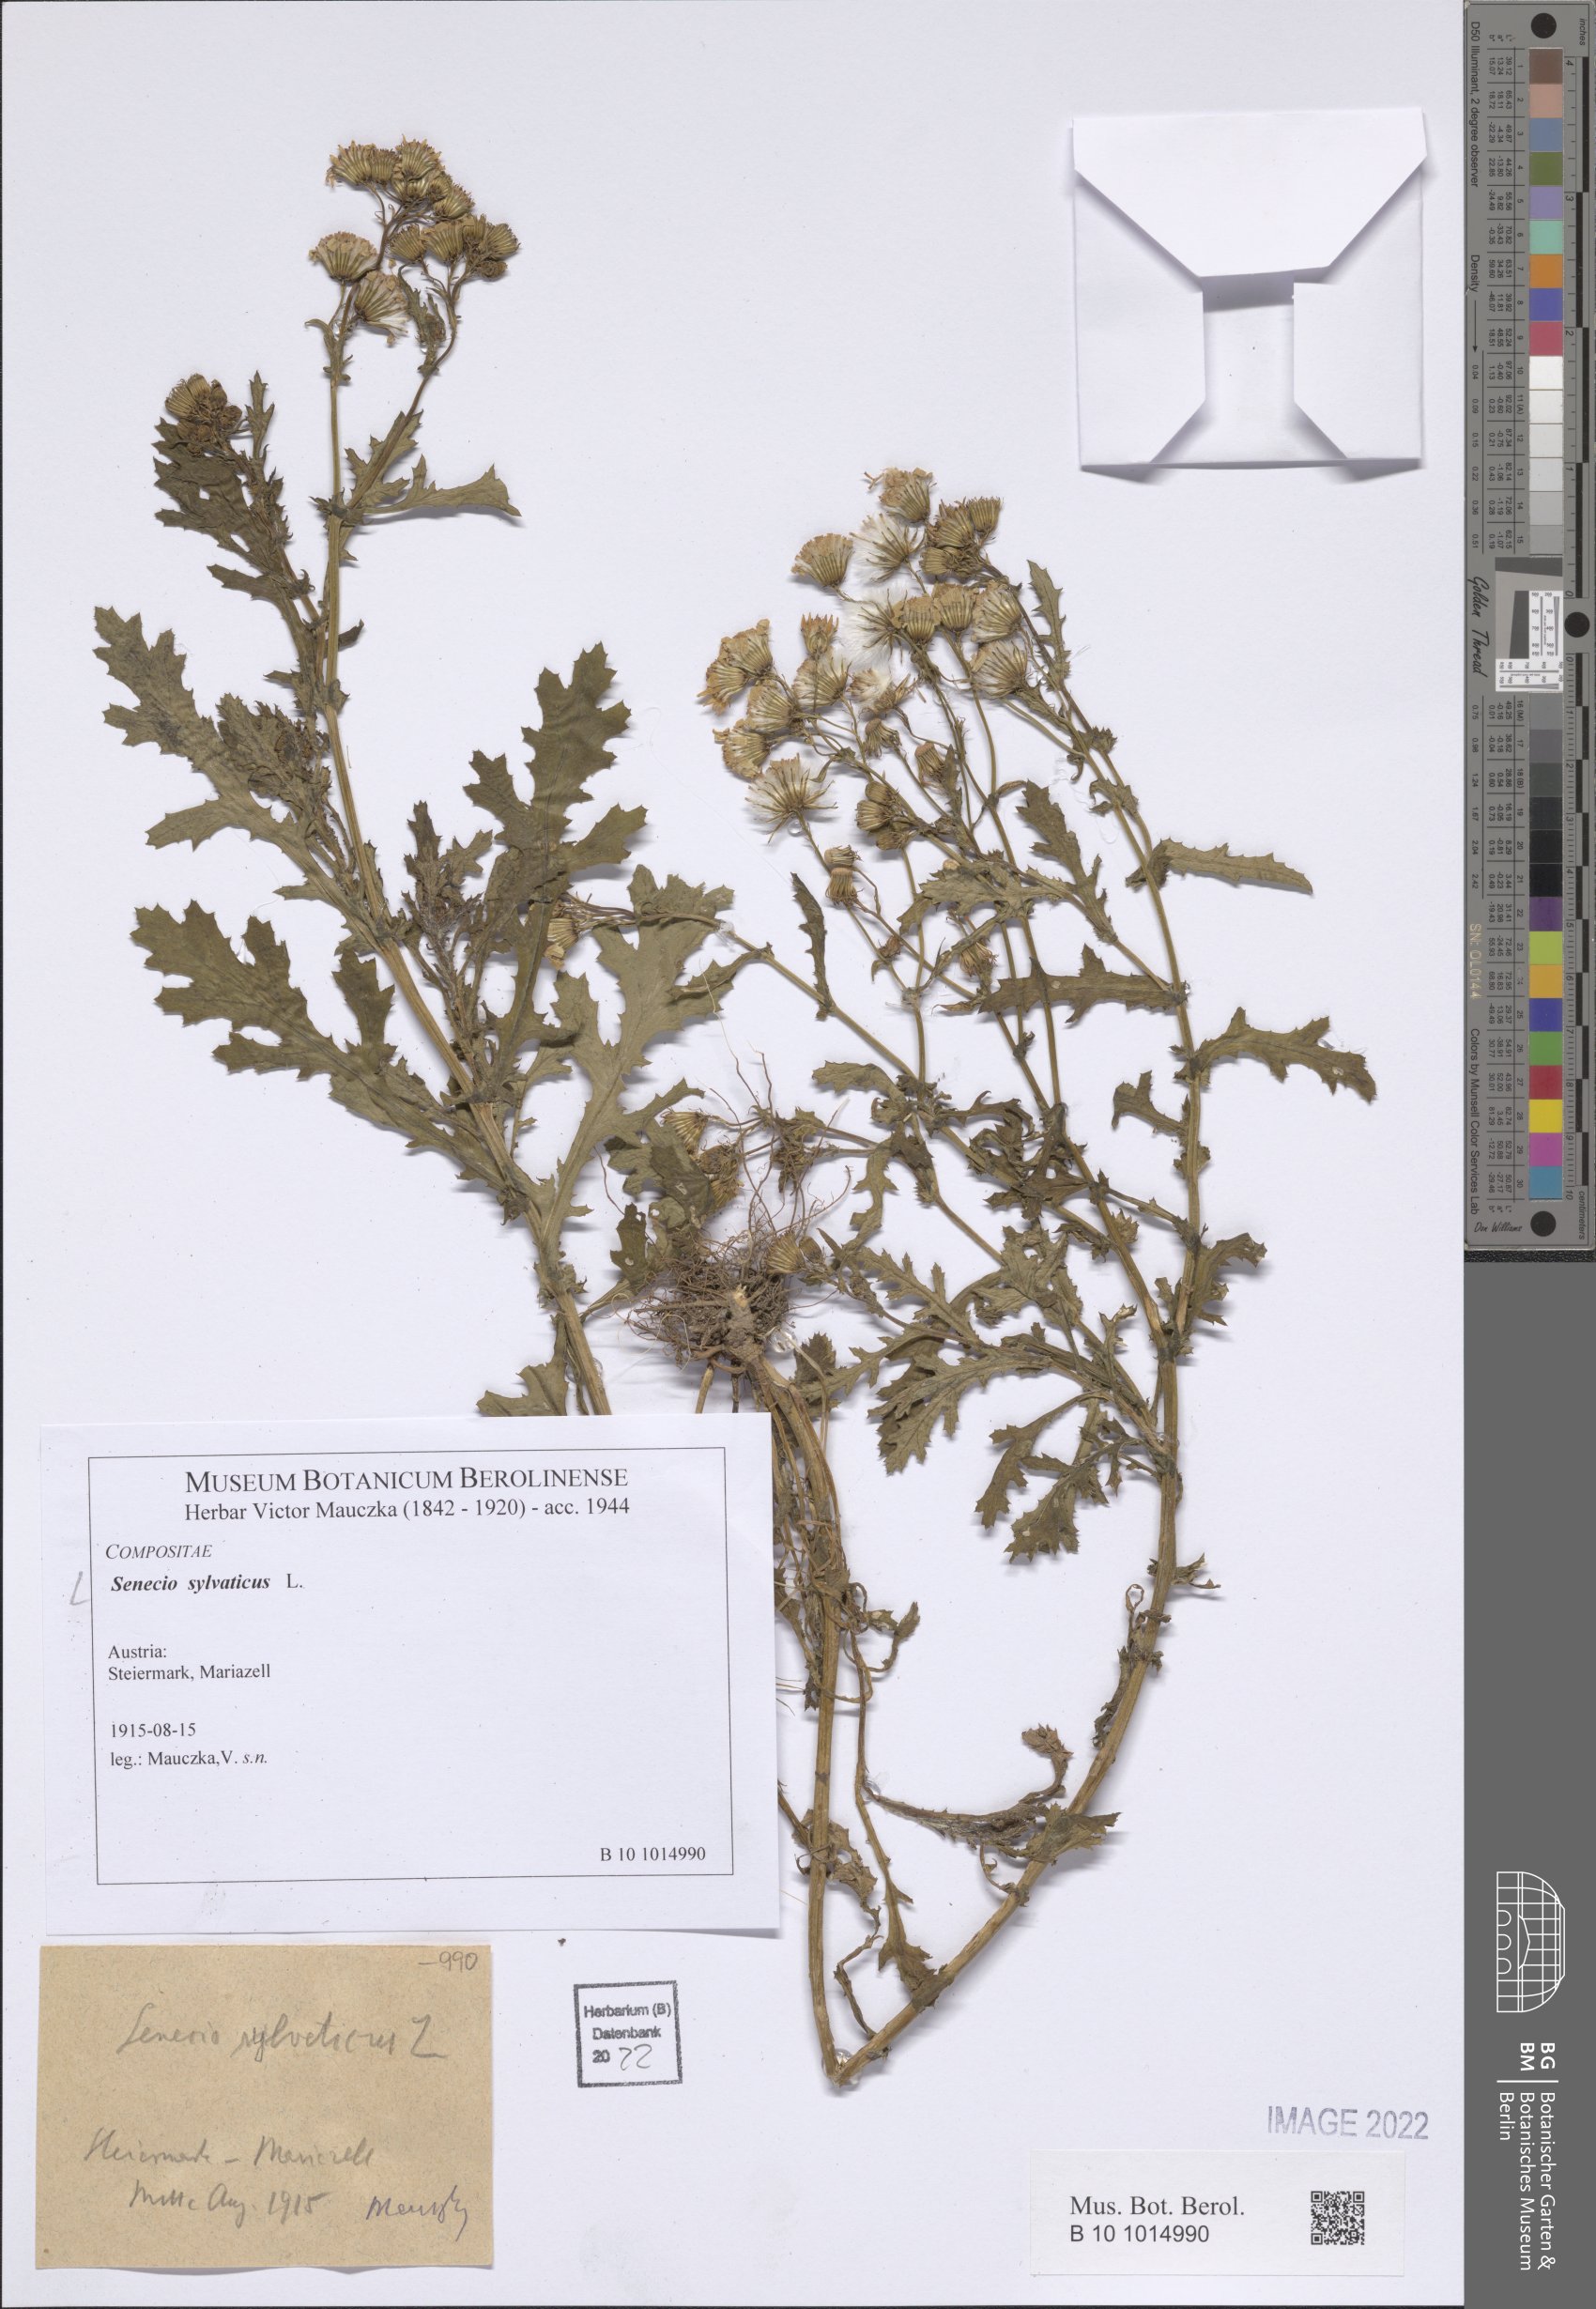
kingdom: Plantae
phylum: Tracheophyta
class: Magnoliopsida
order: Asterales
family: Asteraceae
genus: Senecio
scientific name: Senecio sylvaticus
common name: Woodland ragwort
